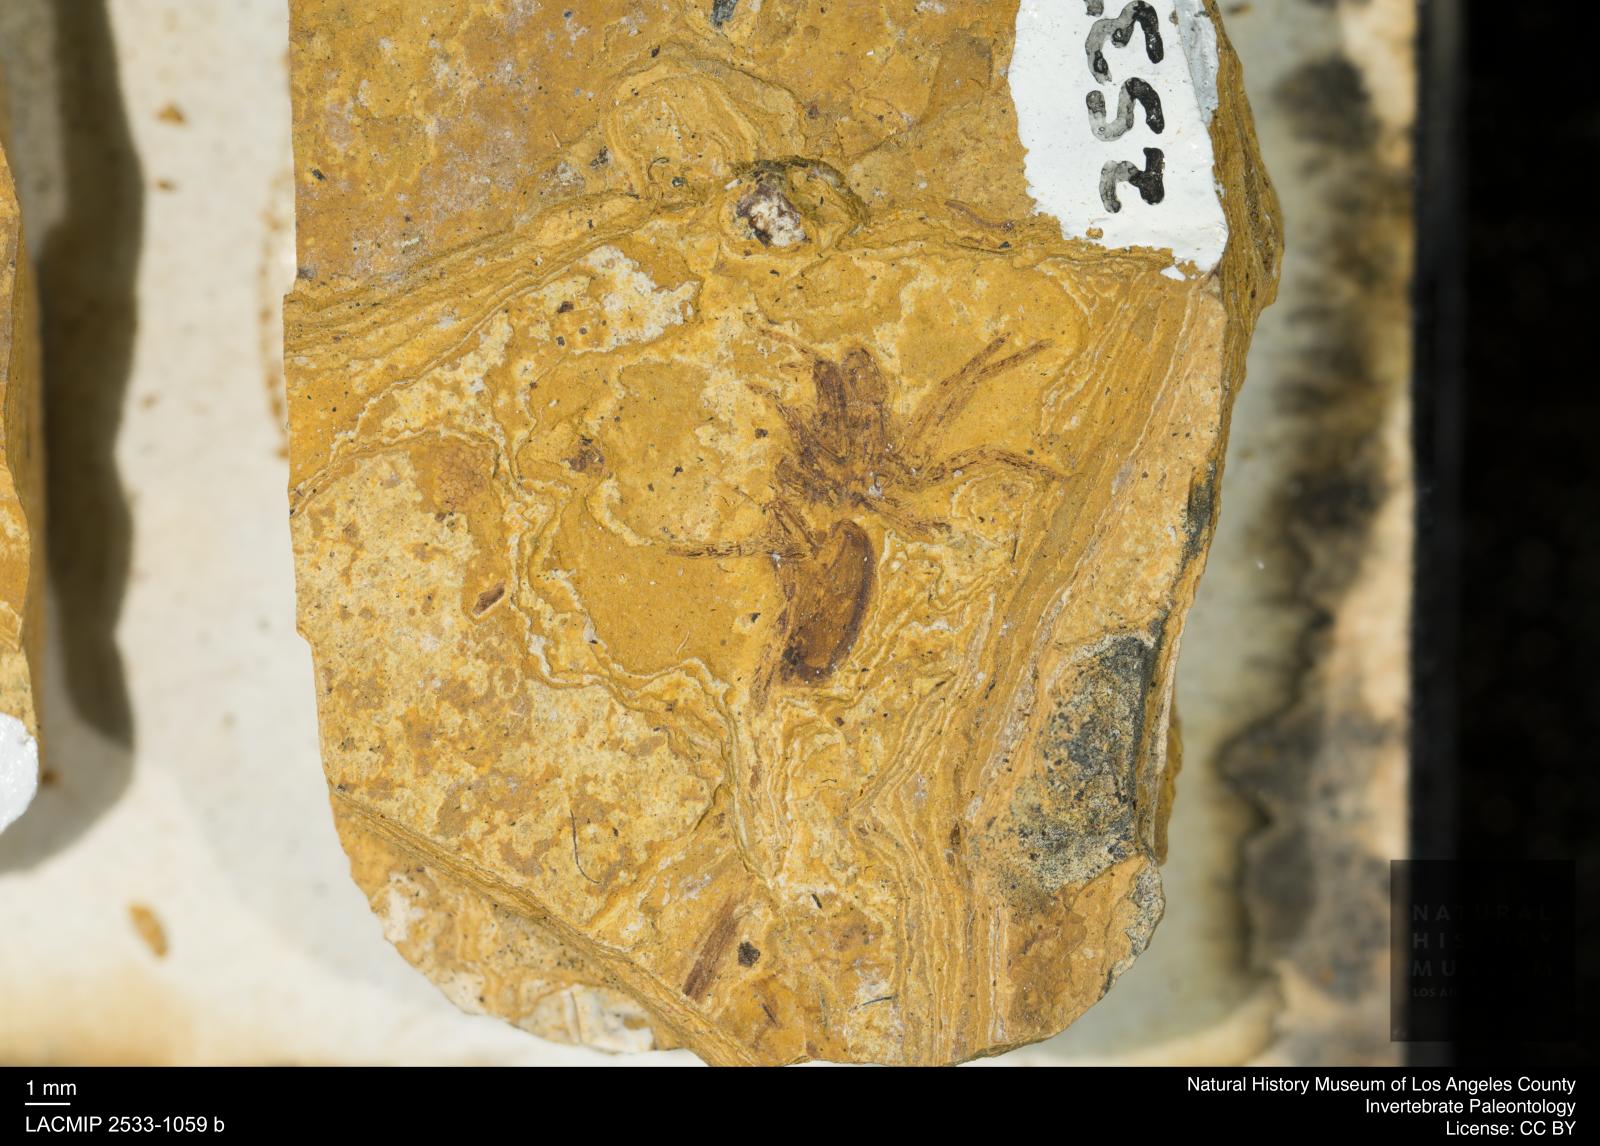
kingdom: Animalia
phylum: Arthropoda
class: Arachnida
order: Araneae
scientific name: Araneae
